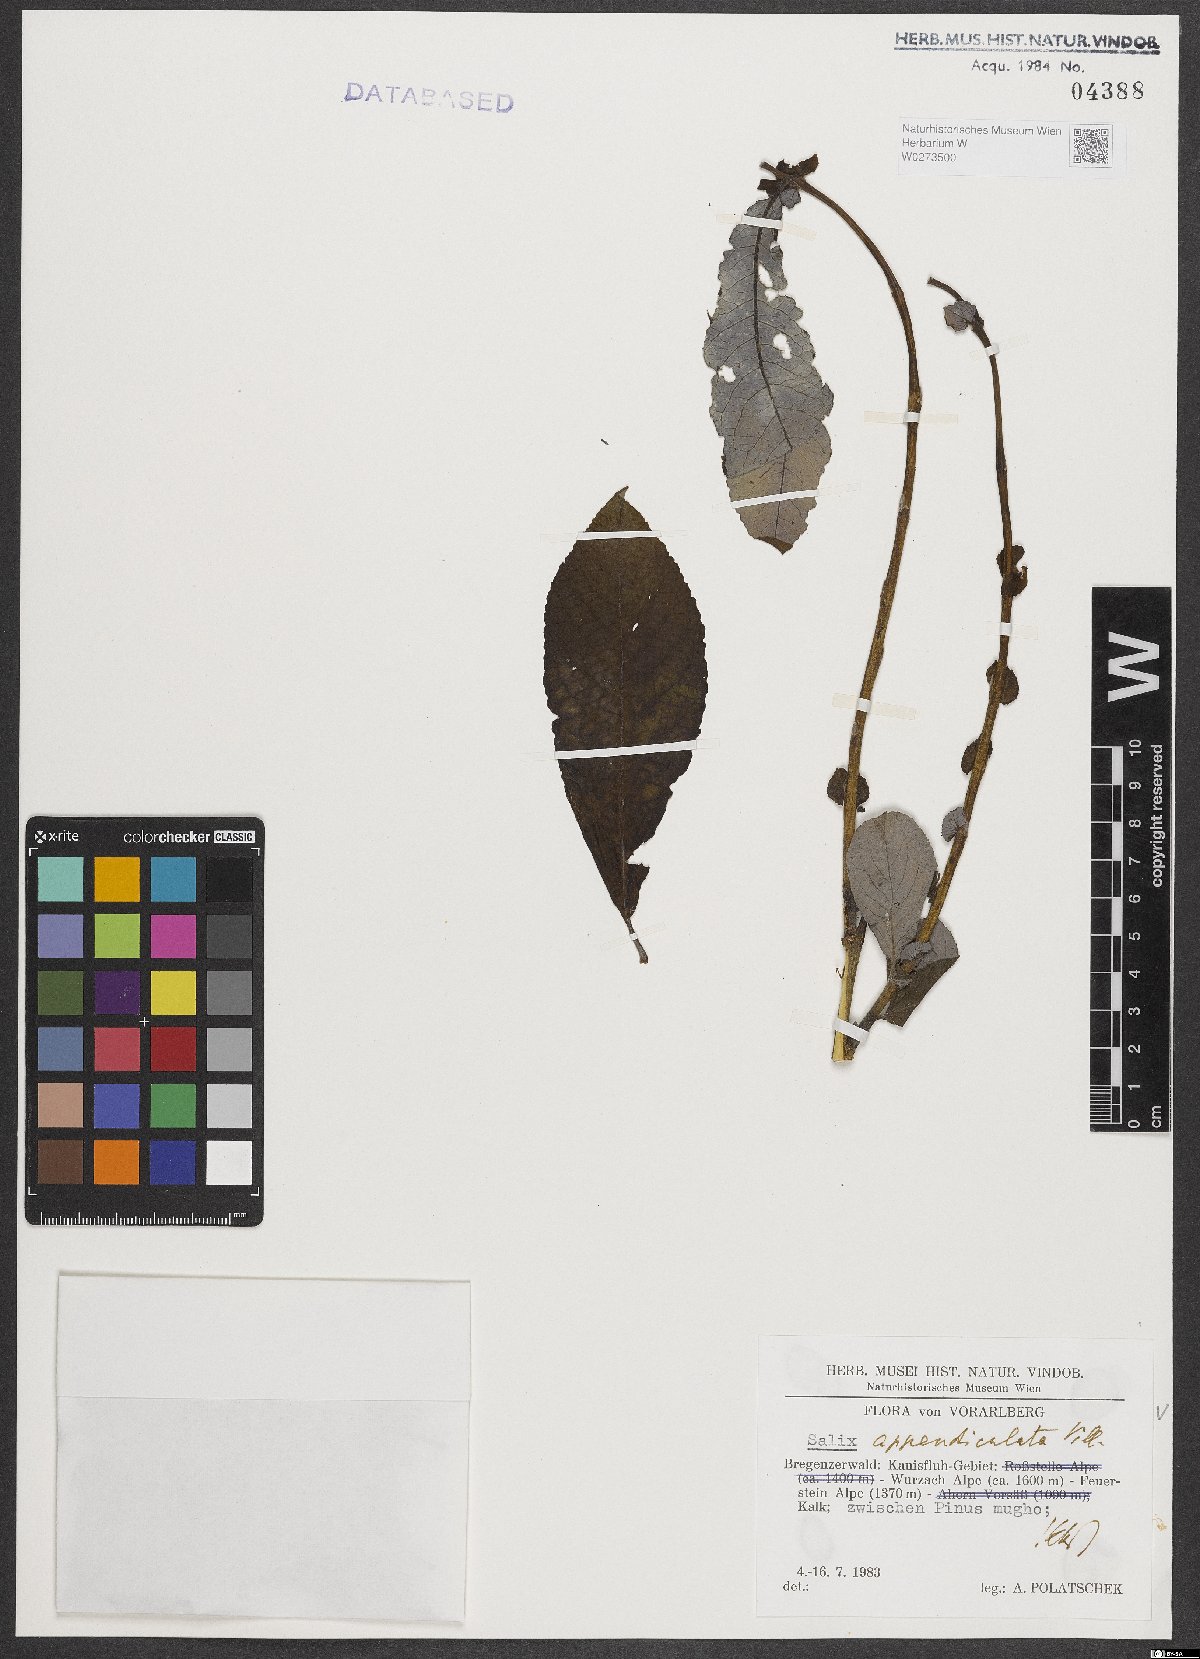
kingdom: Plantae
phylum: Tracheophyta
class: Magnoliopsida
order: Malpighiales
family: Salicaceae
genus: Salix
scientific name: Salix appendiculata
